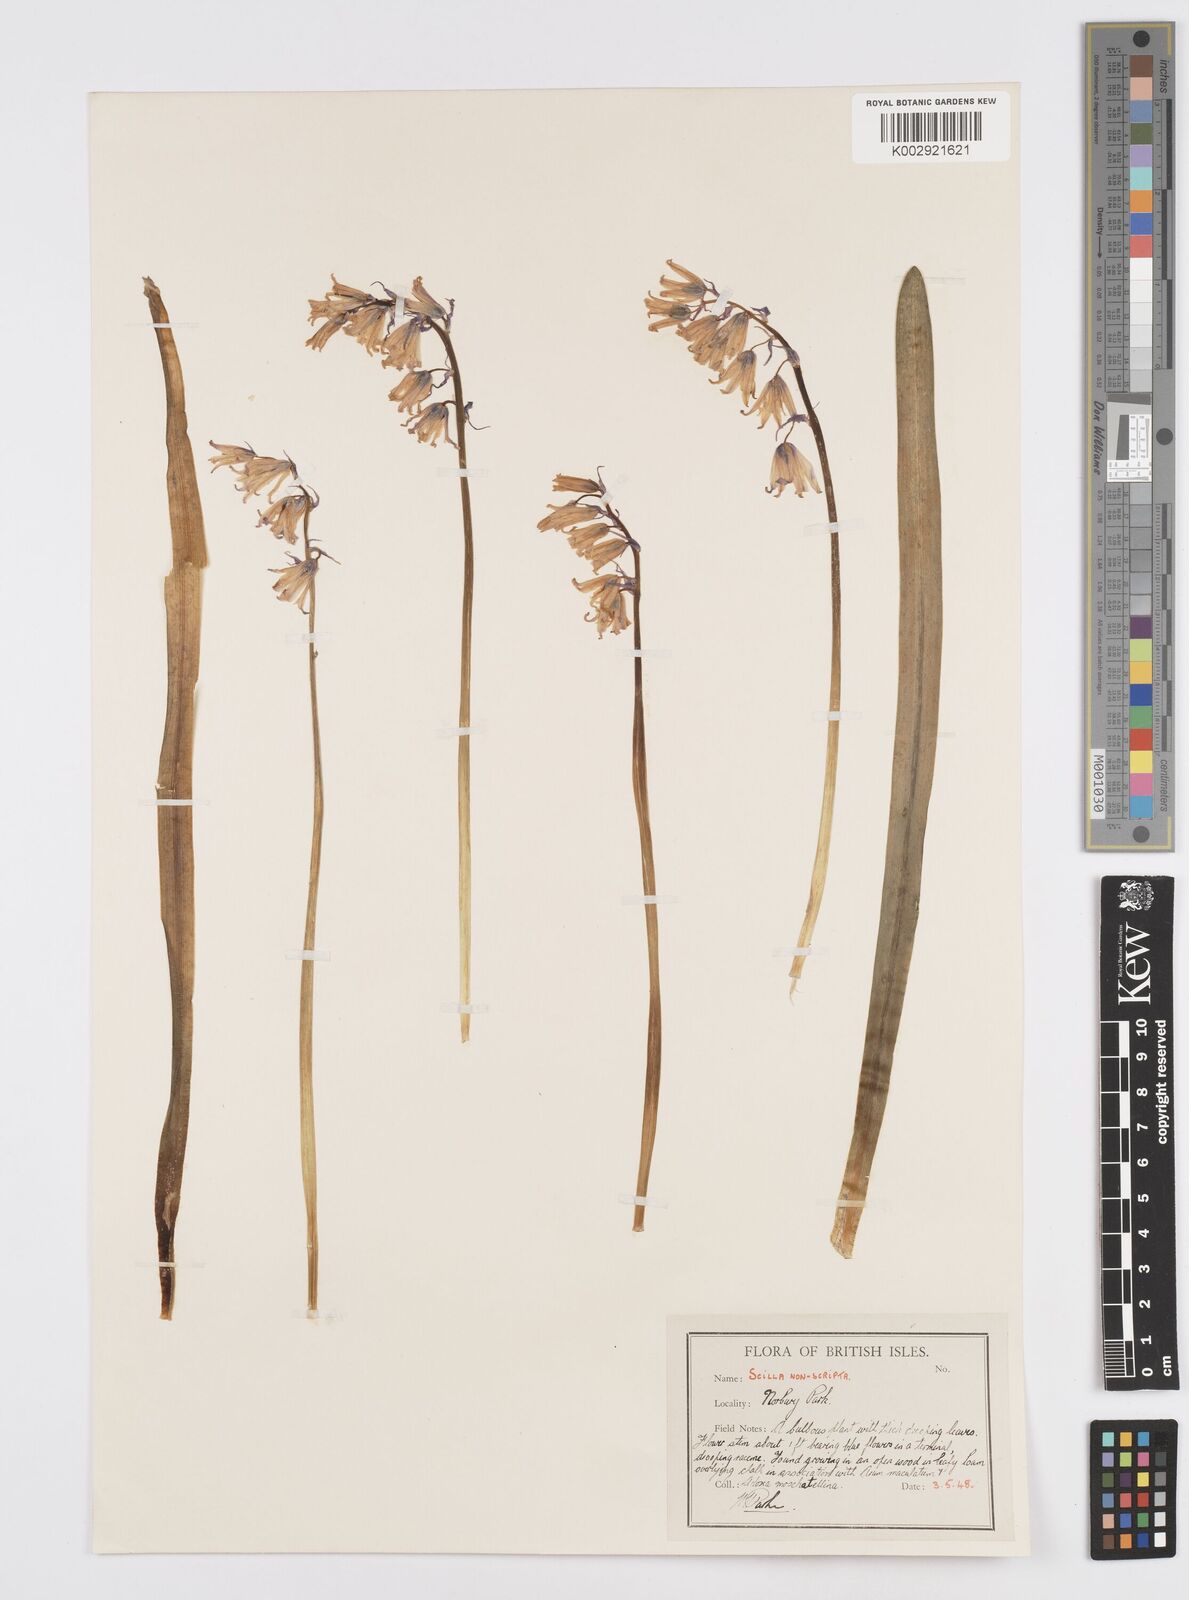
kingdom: Plantae
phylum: Tracheophyta
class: Liliopsida
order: Asparagales
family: Asparagaceae
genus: Hyacinthoides
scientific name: Hyacinthoides non-scripta
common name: Bluebell
